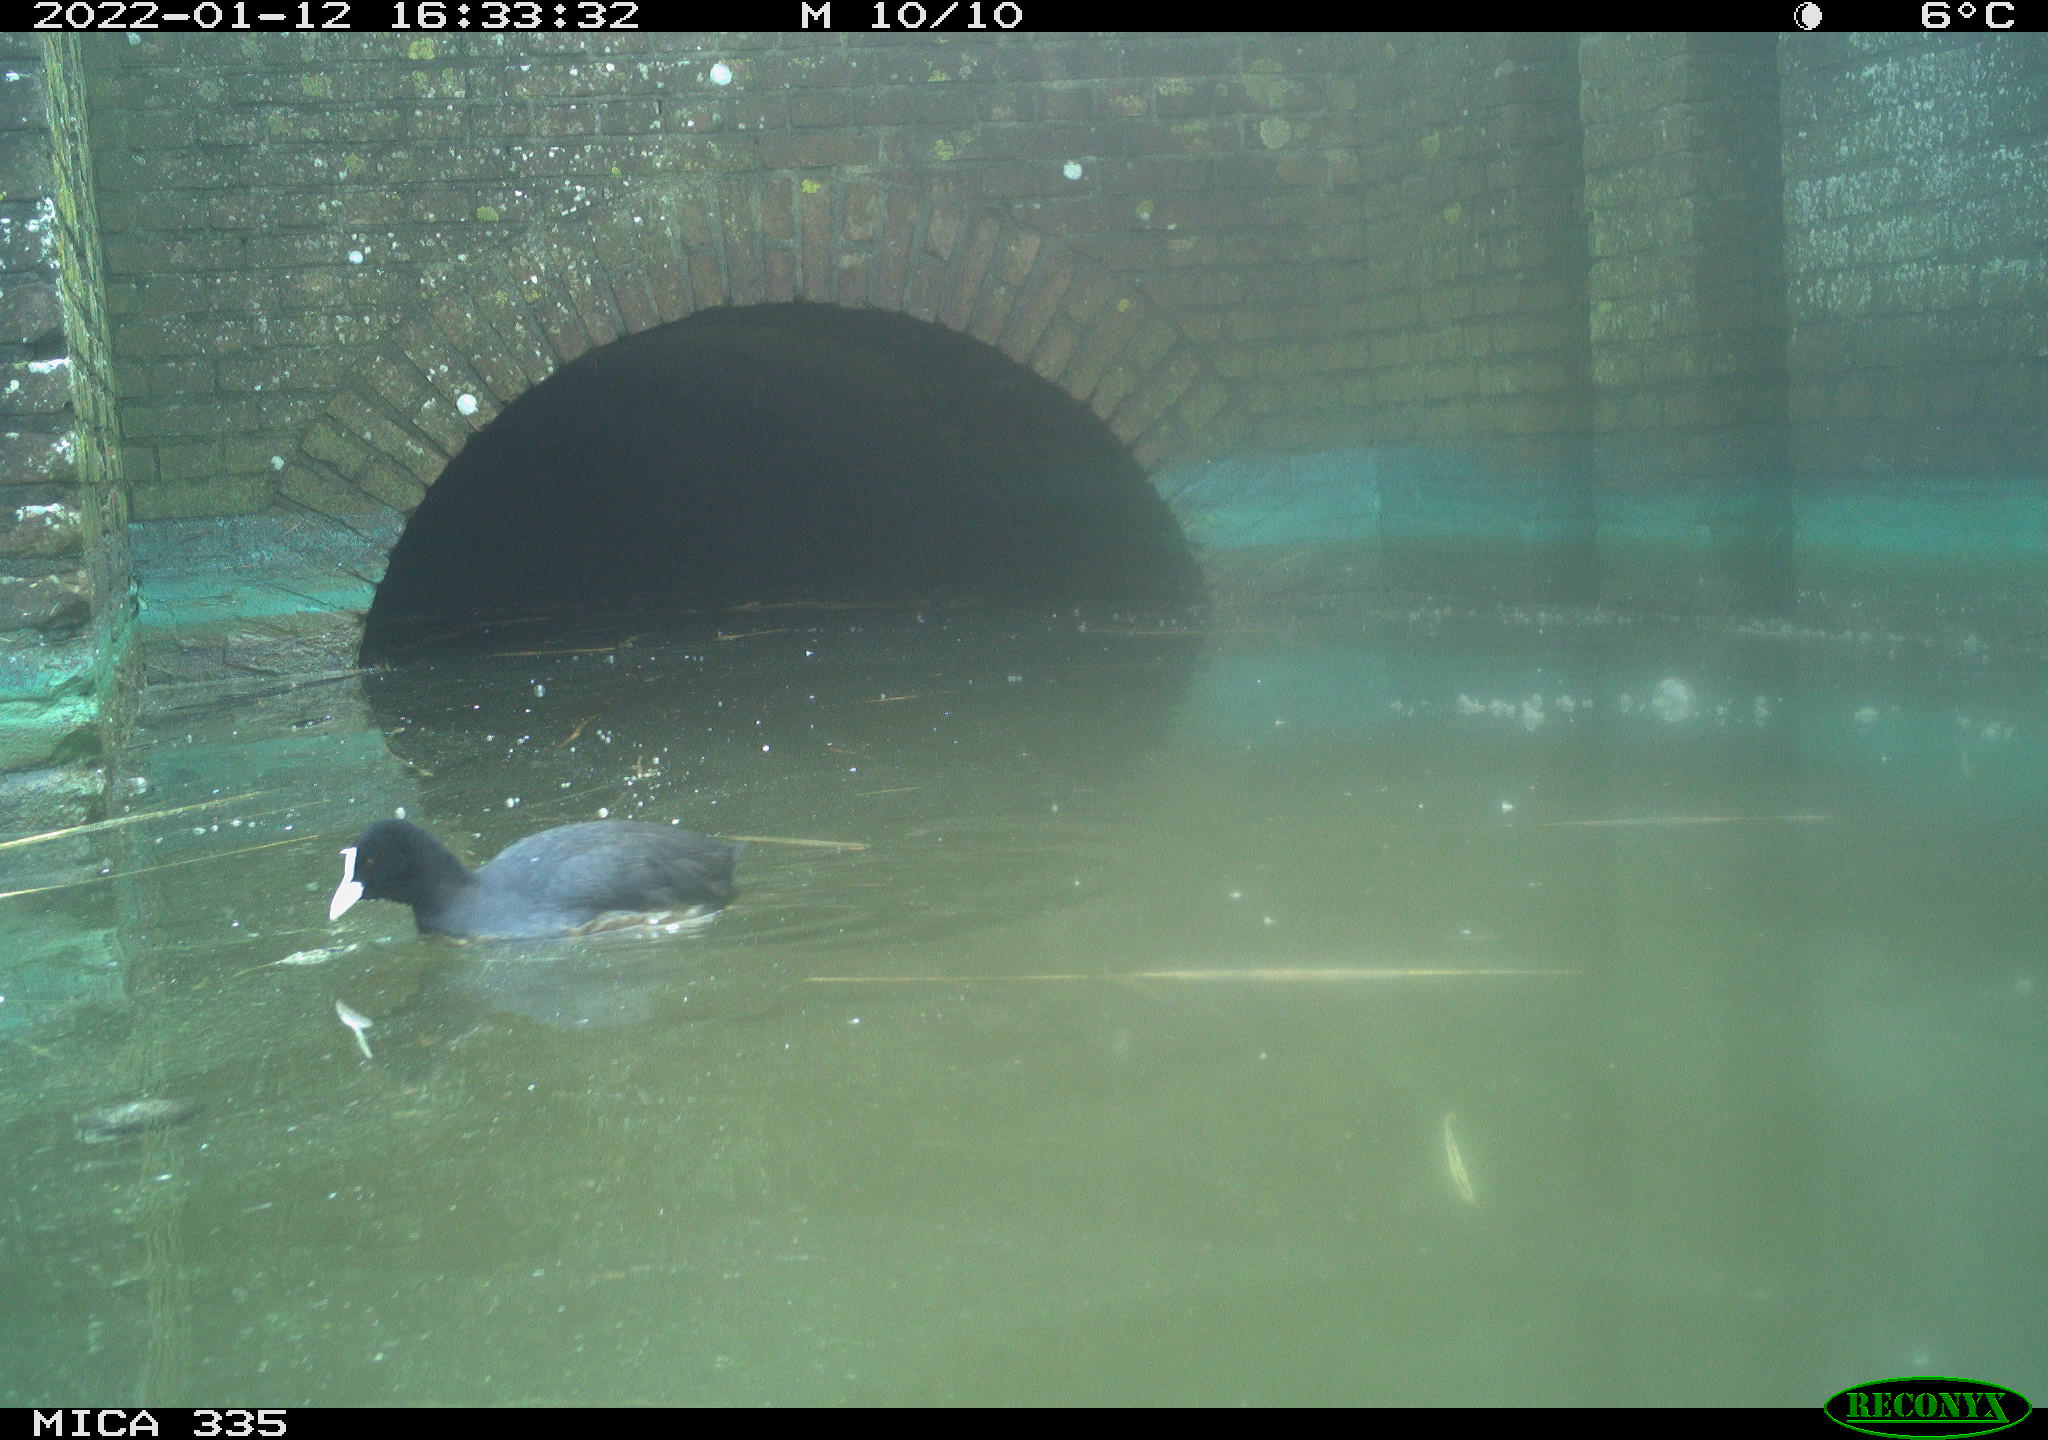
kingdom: Animalia
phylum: Chordata
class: Aves
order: Gruiformes
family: Rallidae
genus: Fulica
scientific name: Fulica atra
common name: Eurasian coot
